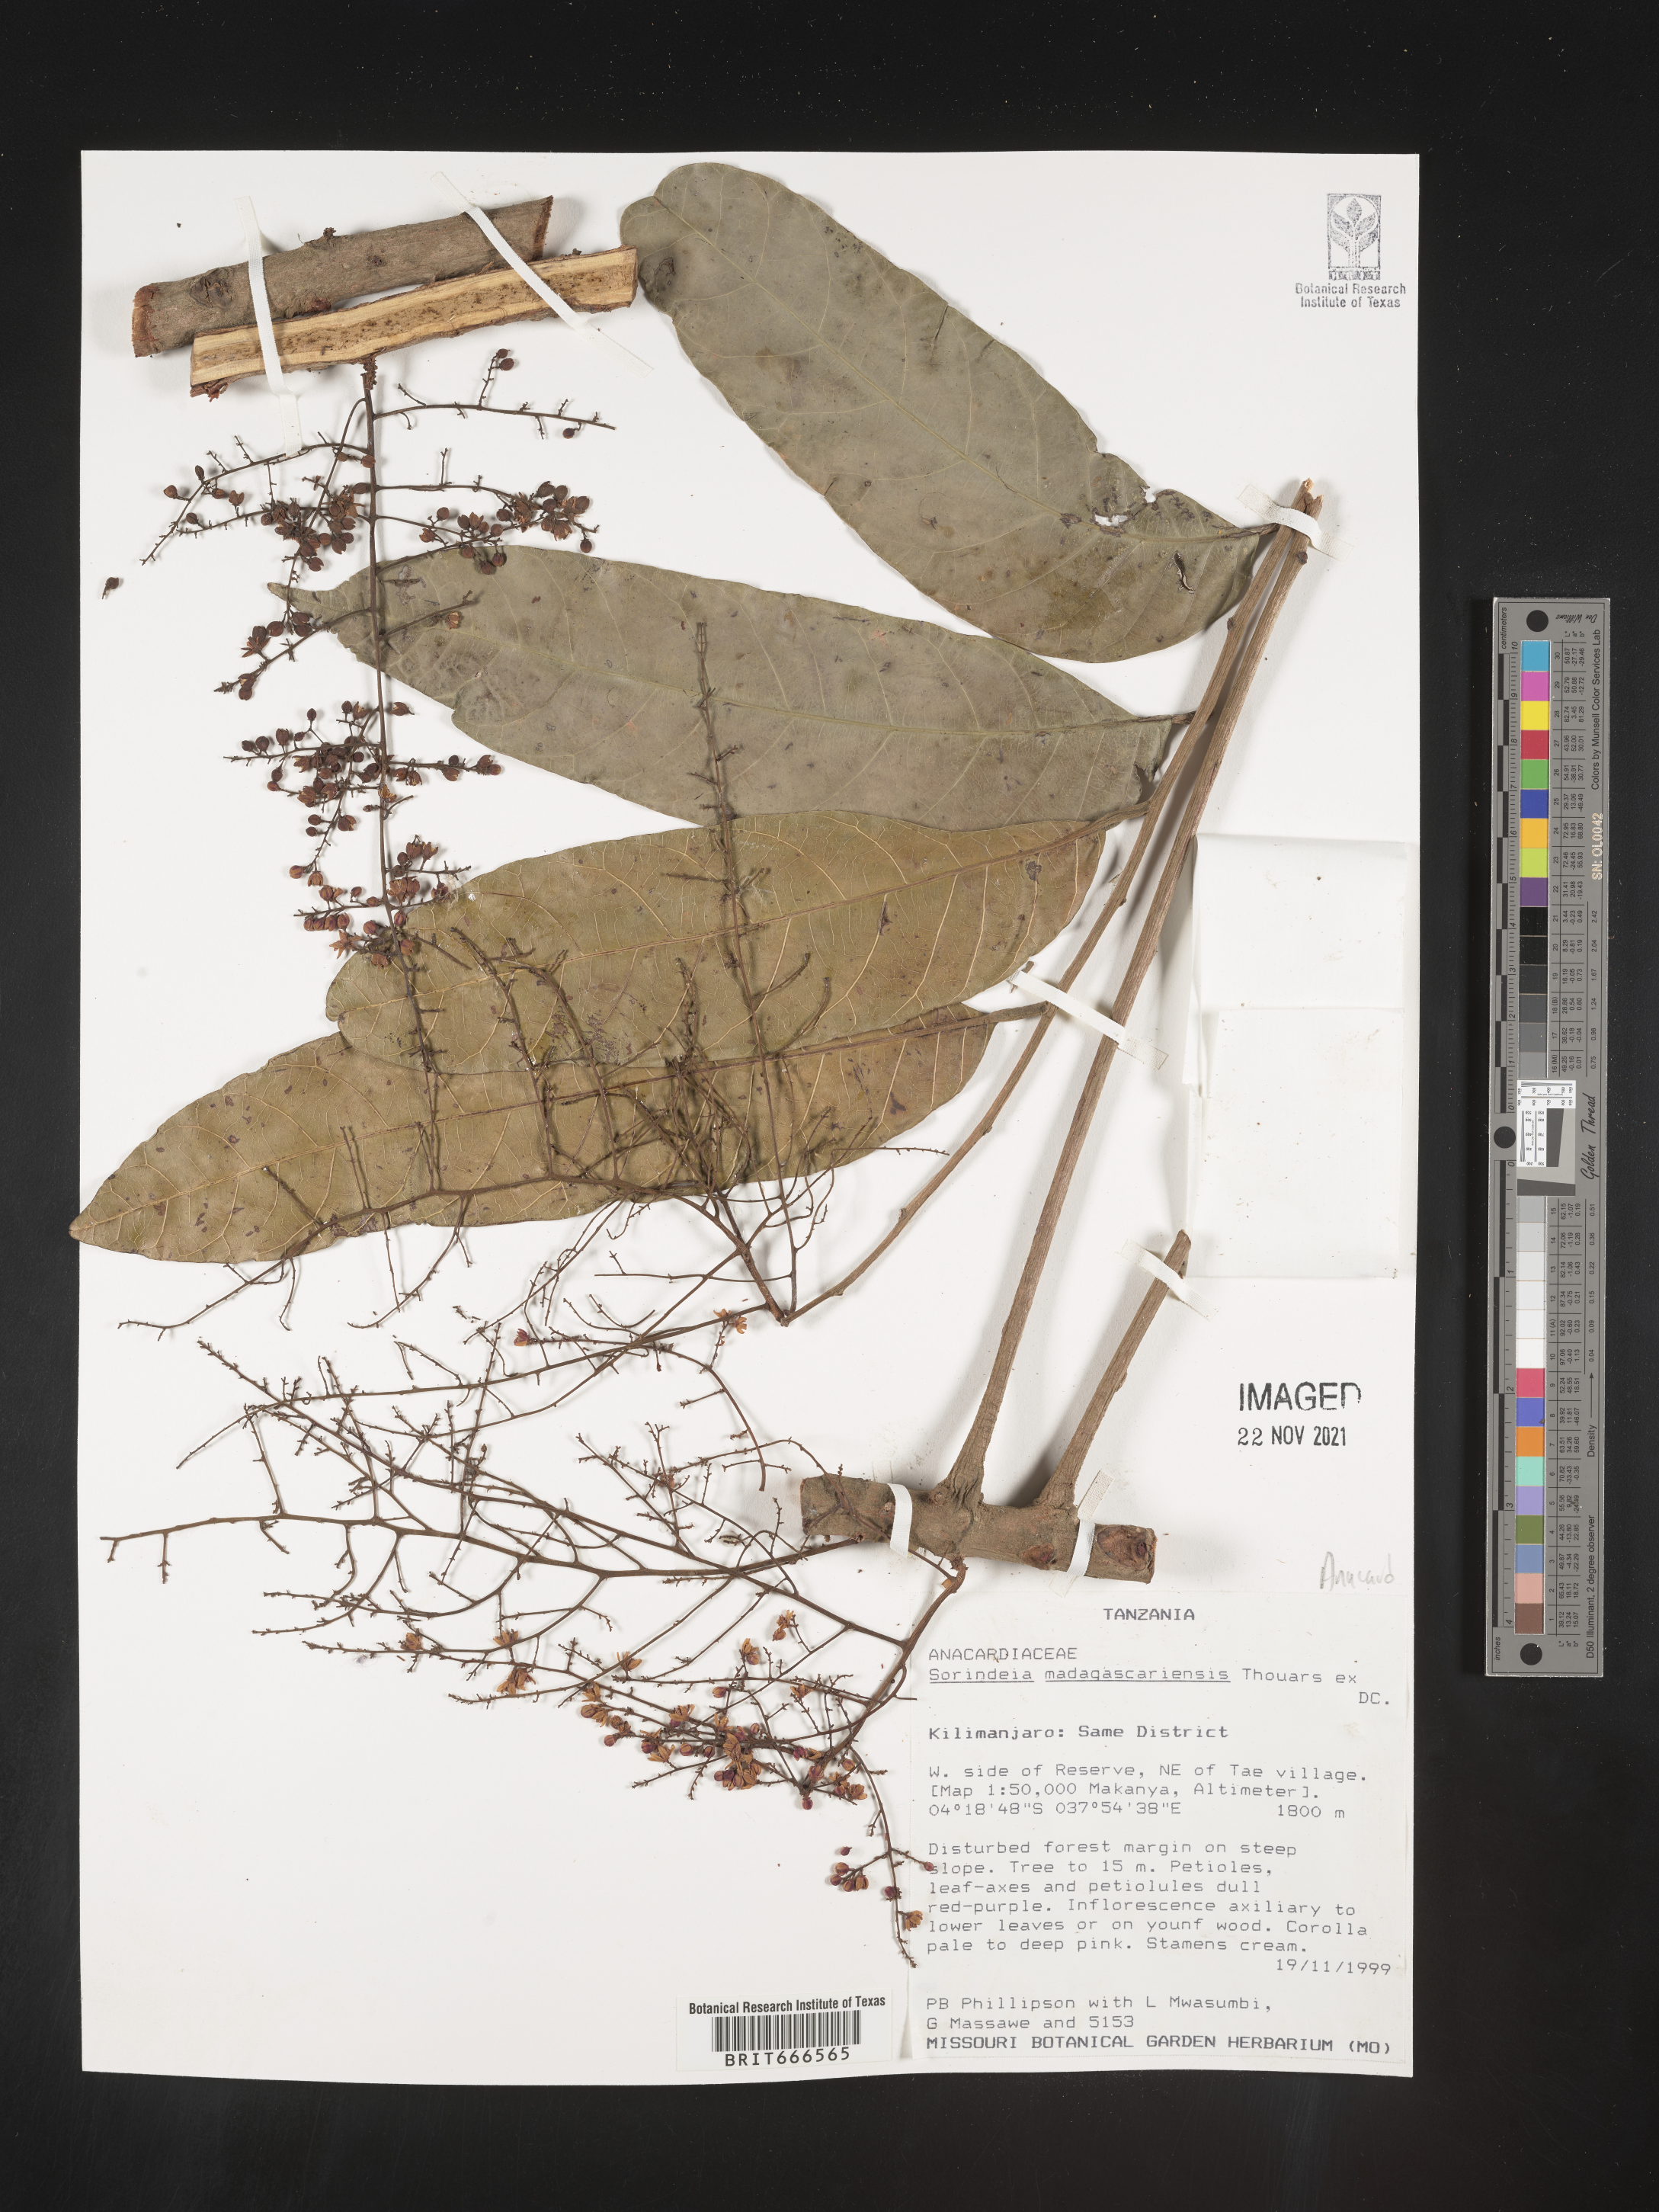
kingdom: Plantae
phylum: Tracheophyta
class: Magnoliopsida
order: Sapindales
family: Anacardiaceae
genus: Sorindeia
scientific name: Sorindeia
